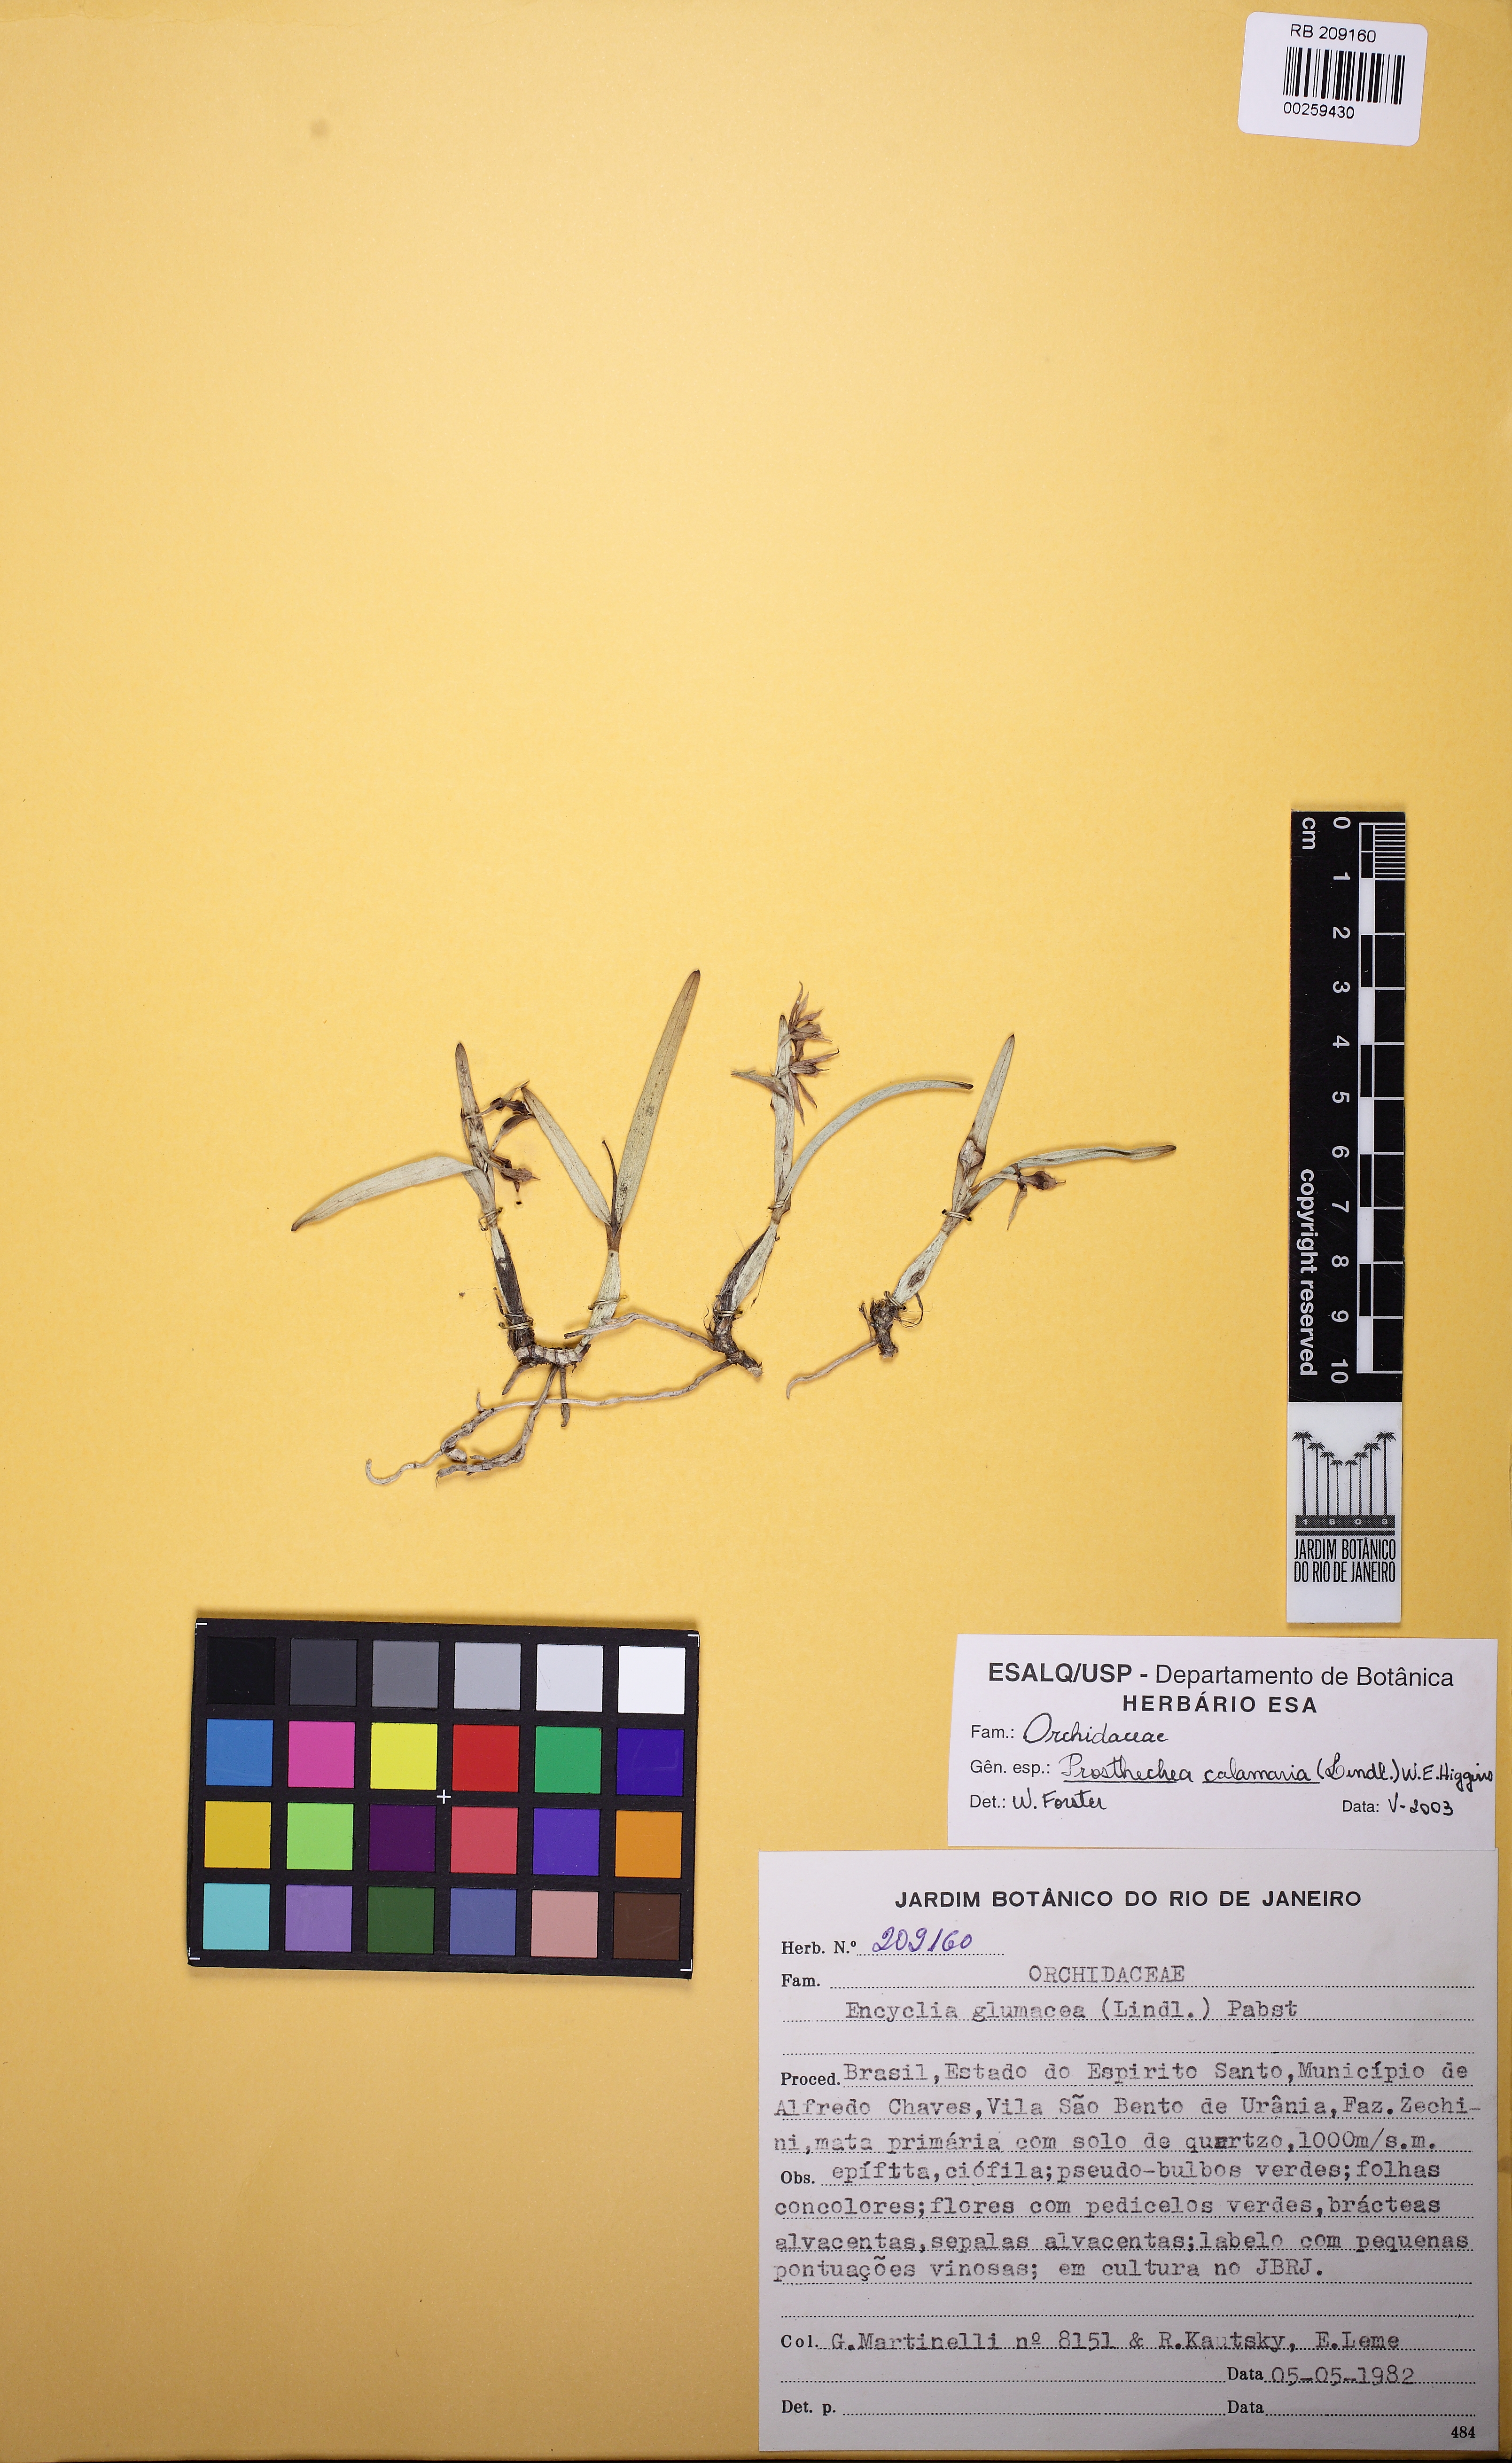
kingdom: Plantae
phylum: Tracheophyta
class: Liliopsida
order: Asparagales
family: Orchidaceae
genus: Prosthechea
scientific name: Prosthechea calamaria
